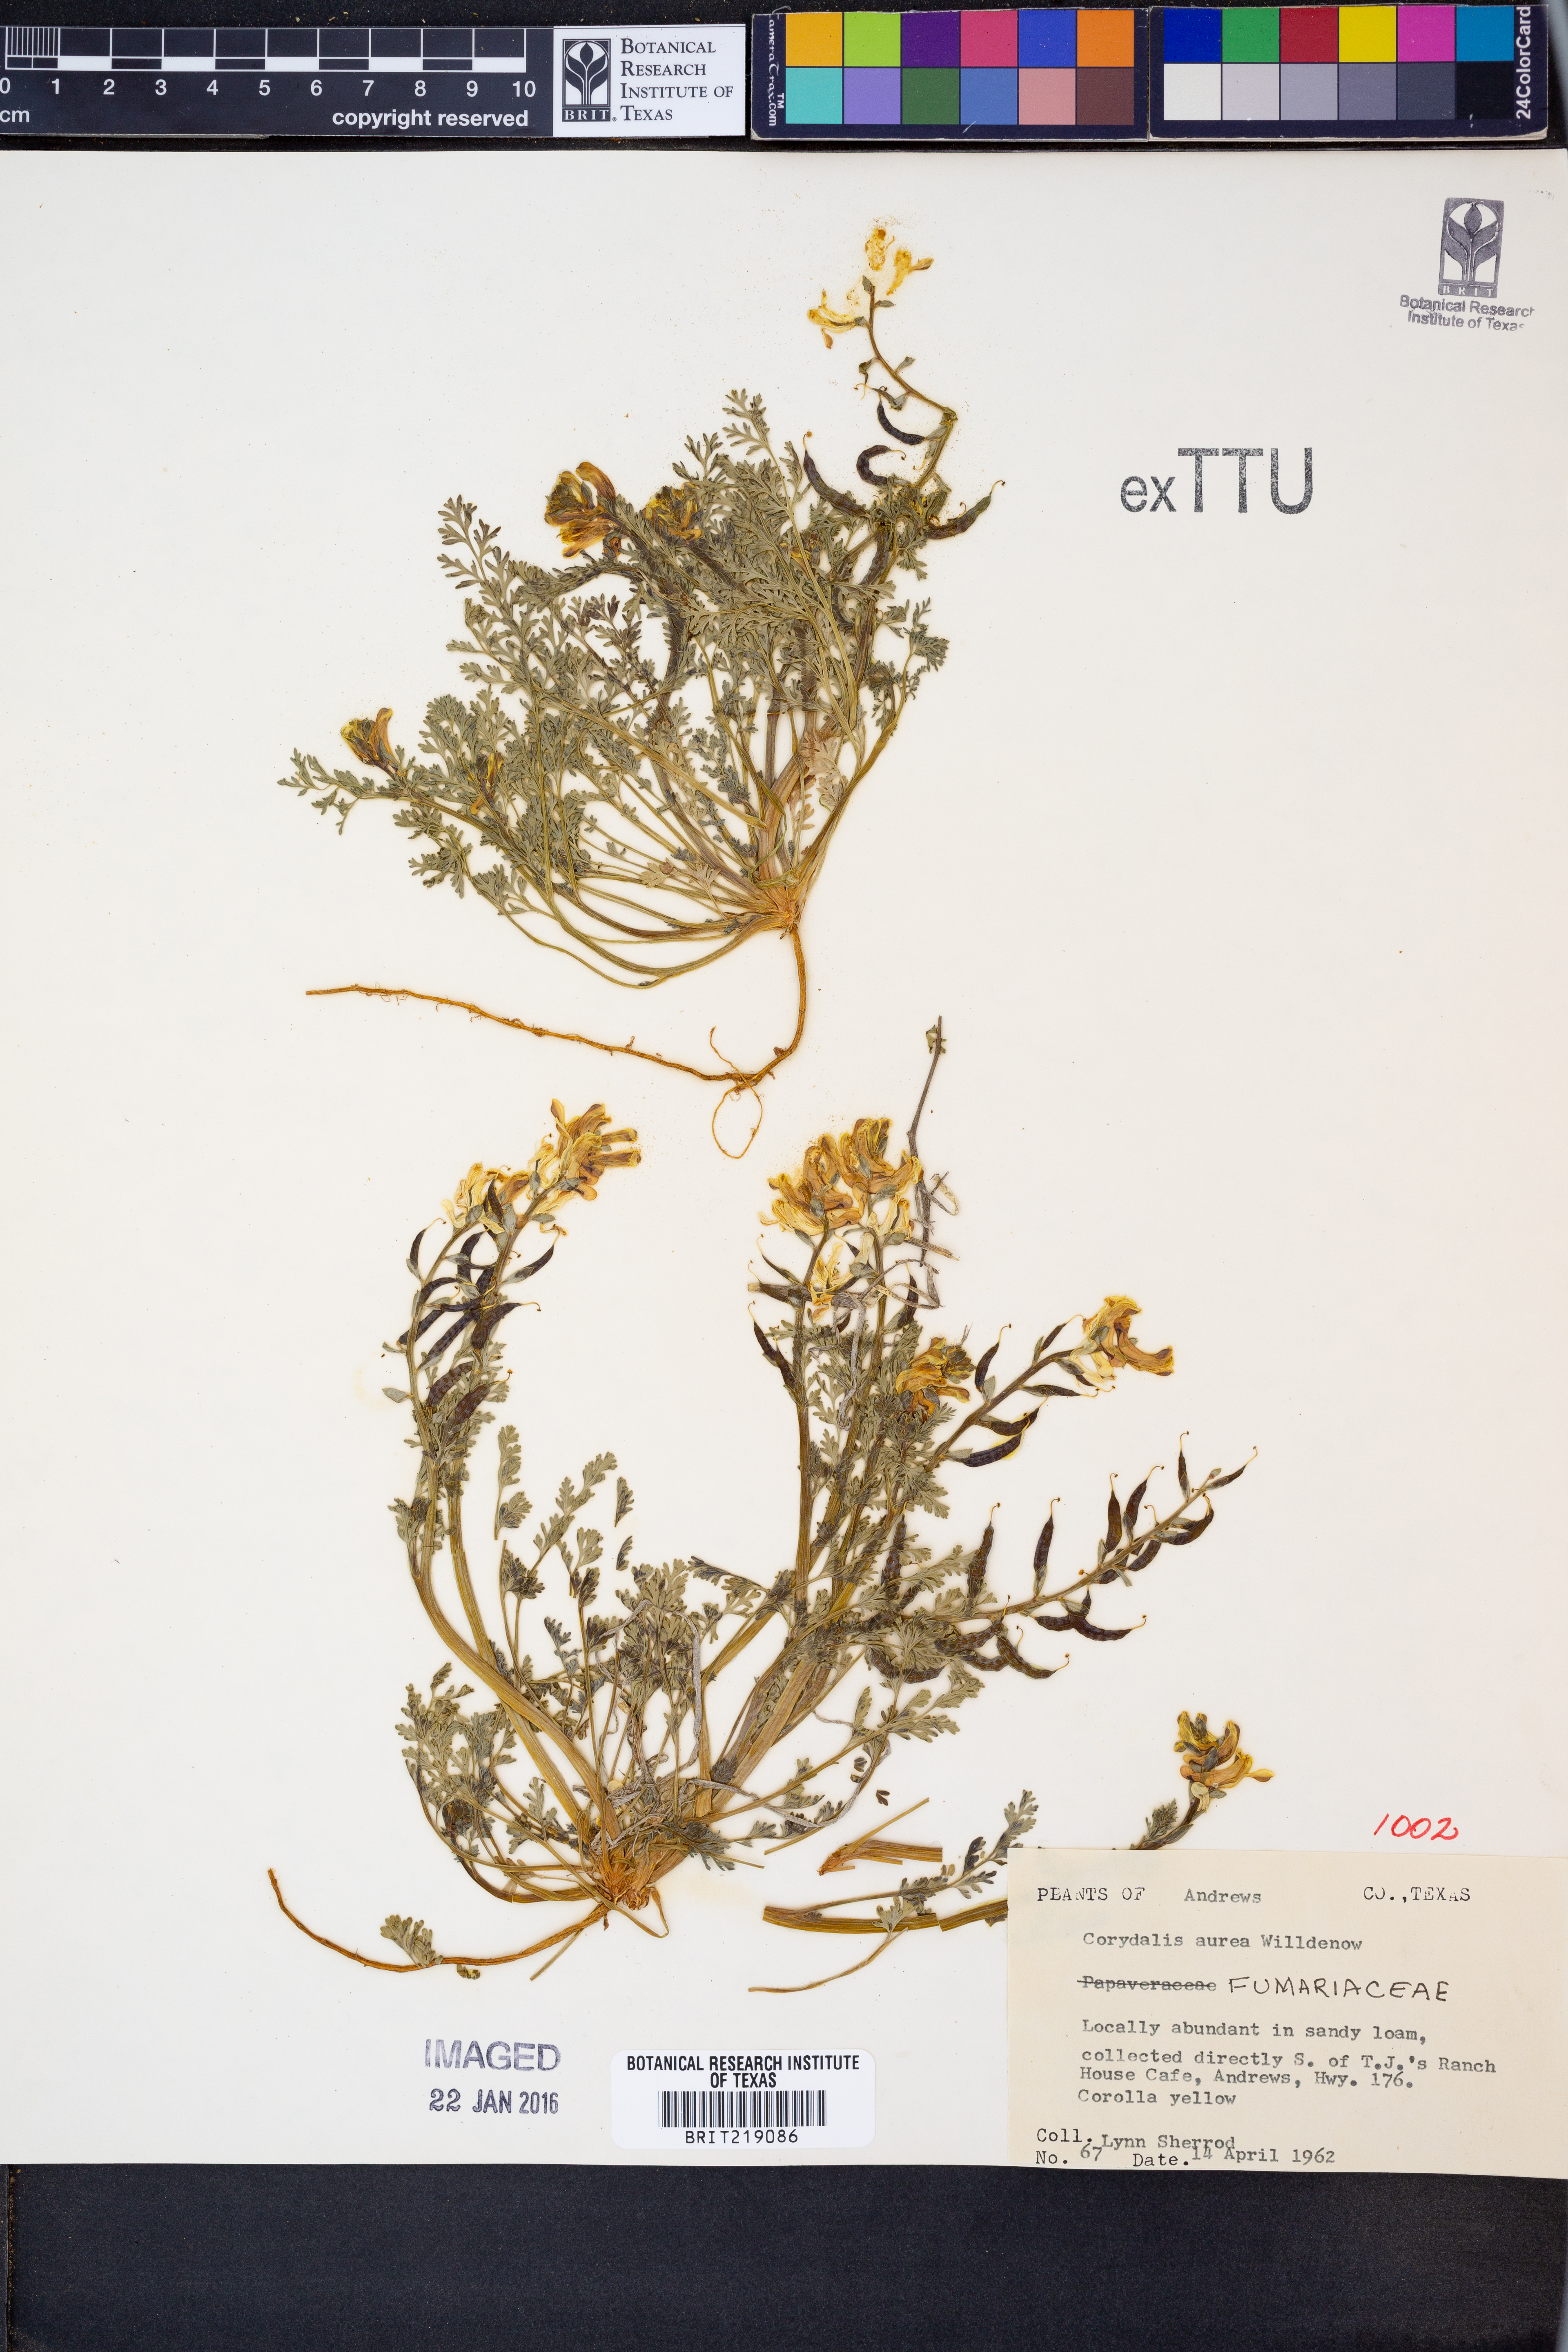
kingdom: Plantae
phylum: Tracheophyta
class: Magnoliopsida
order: Ranunculales
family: Papaveraceae
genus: Corydalis
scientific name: Corydalis aurea
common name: Golden corydalis
